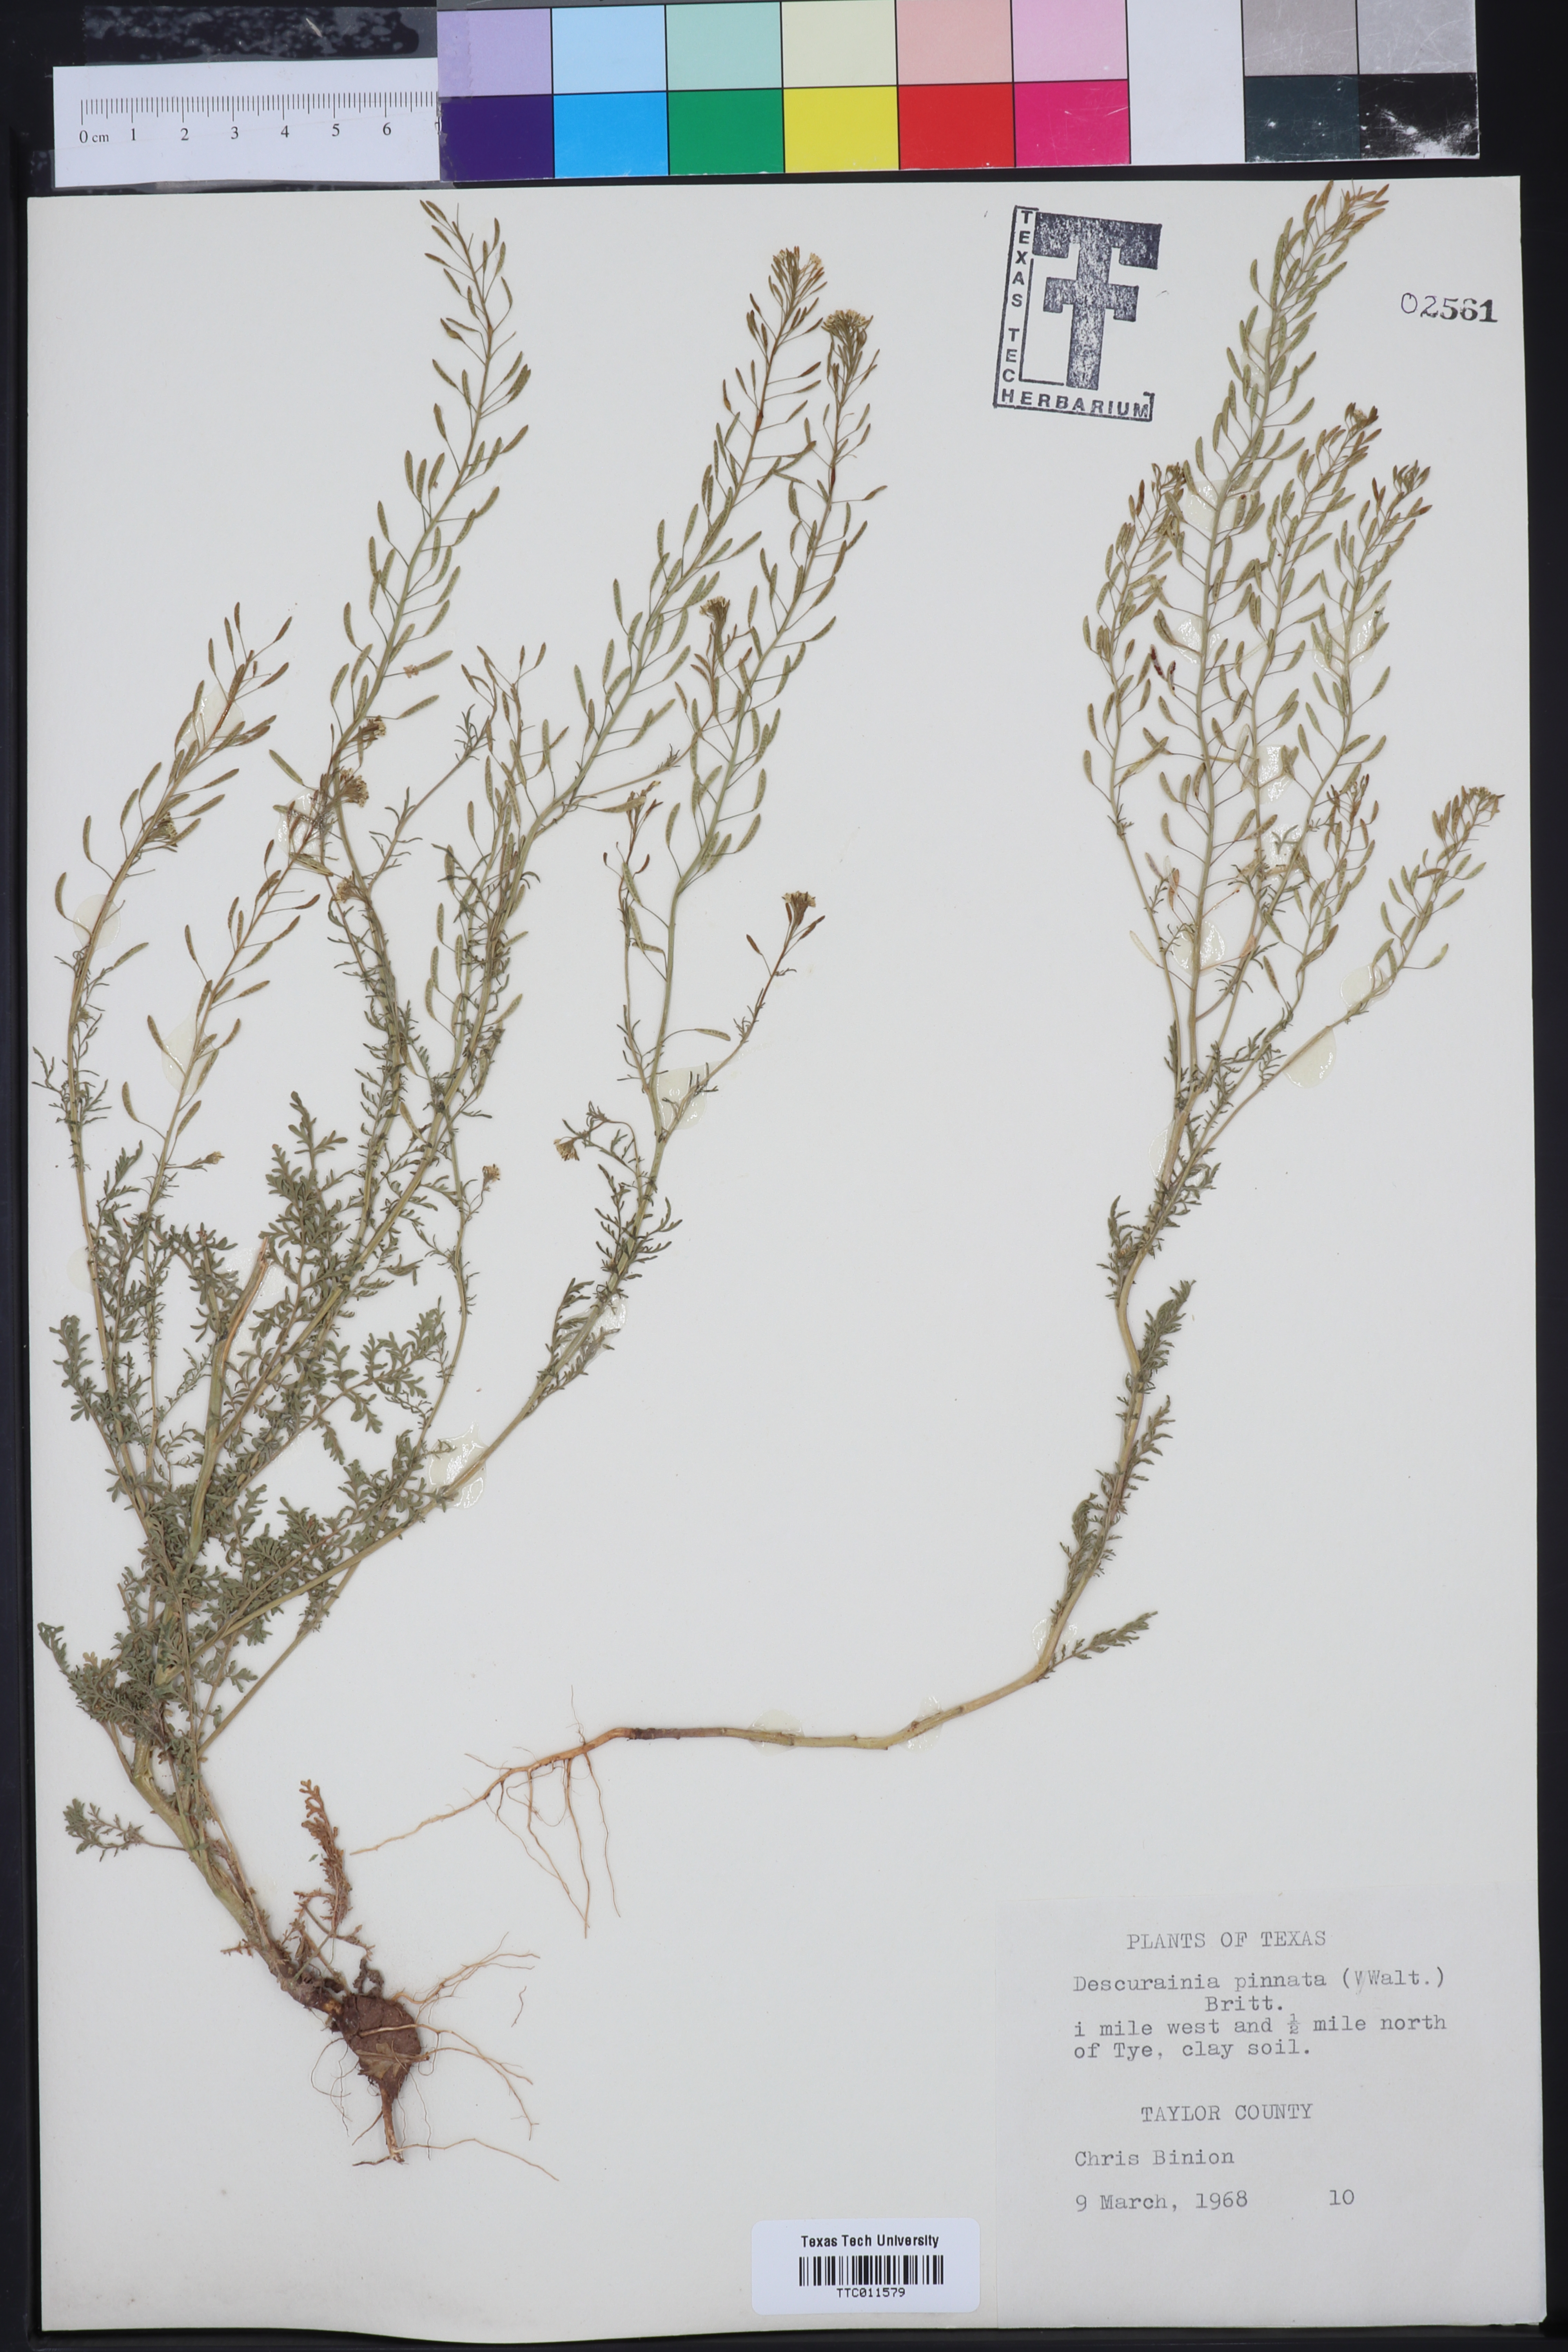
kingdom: Plantae
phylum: Tracheophyta
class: Magnoliopsida
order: Brassicales
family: Brassicaceae
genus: Descurainia
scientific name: Descurainia pinnata
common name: Western tansy mustard
